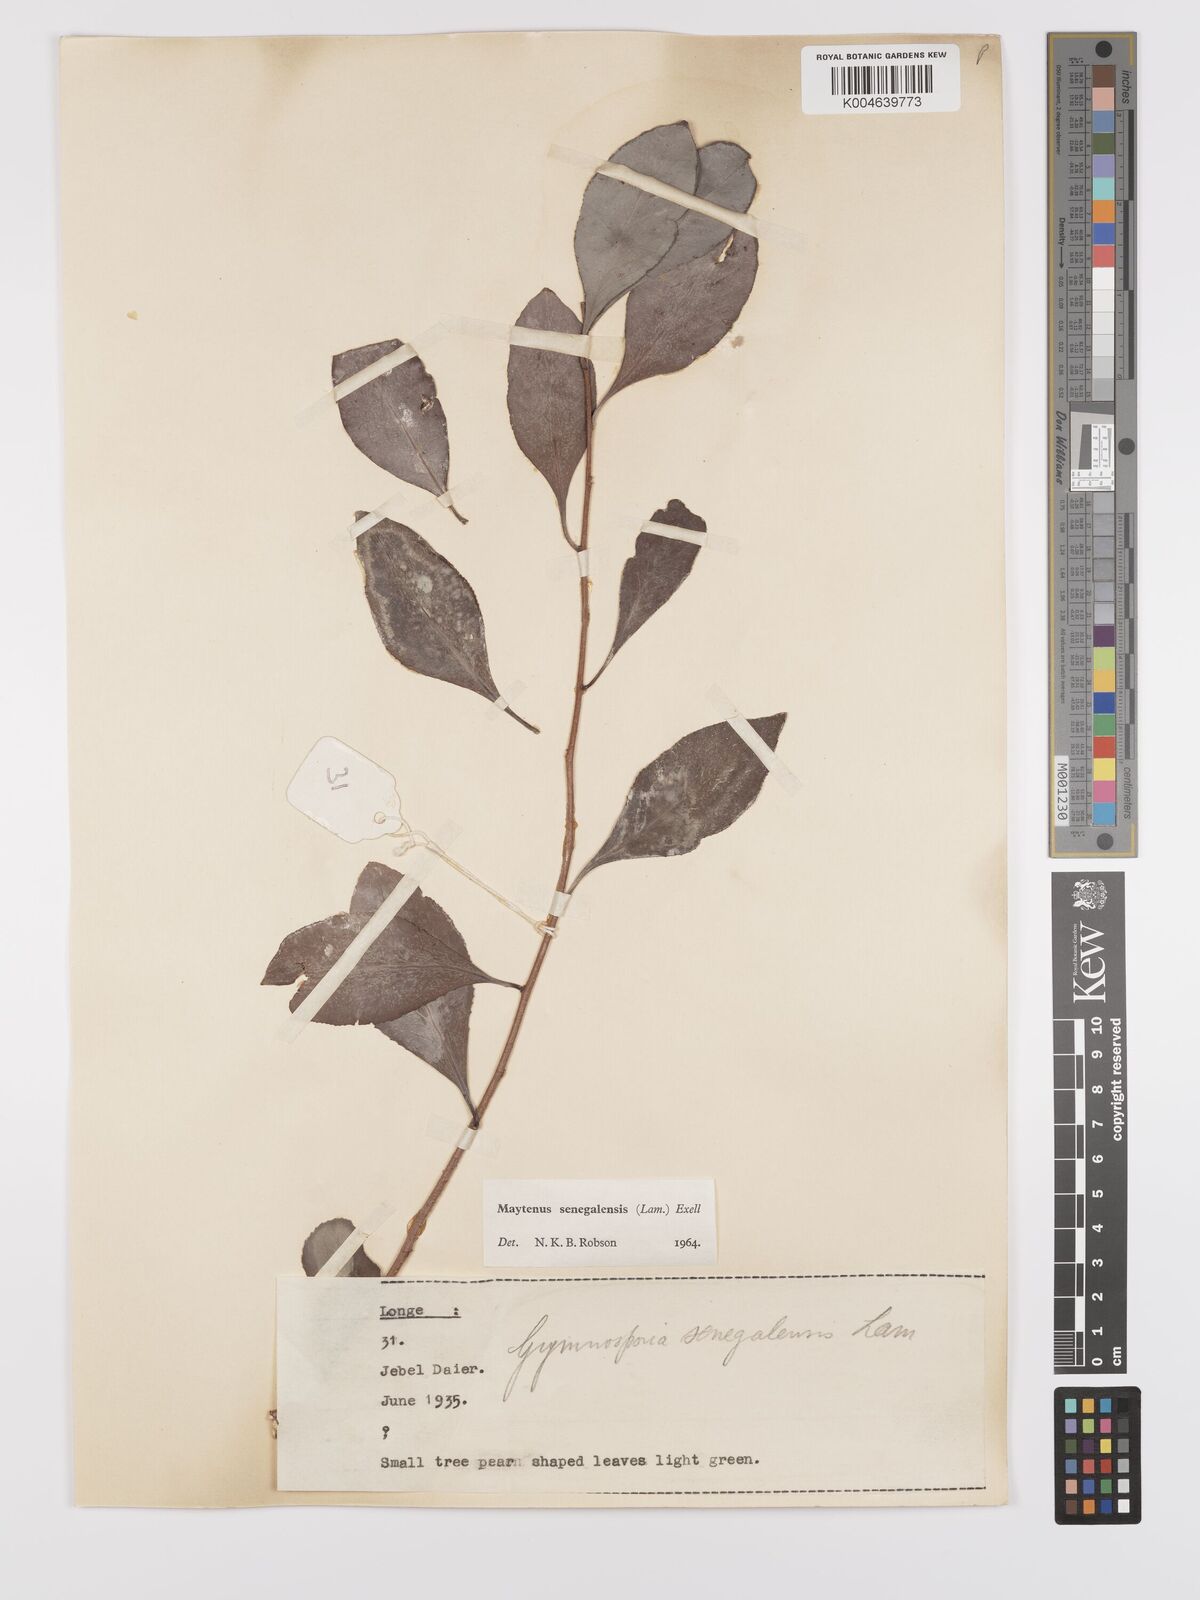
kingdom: Plantae
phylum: Tracheophyta
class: Magnoliopsida
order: Celastrales
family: Celastraceae
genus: Gymnosporia
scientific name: Gymnosporia senegalensis
